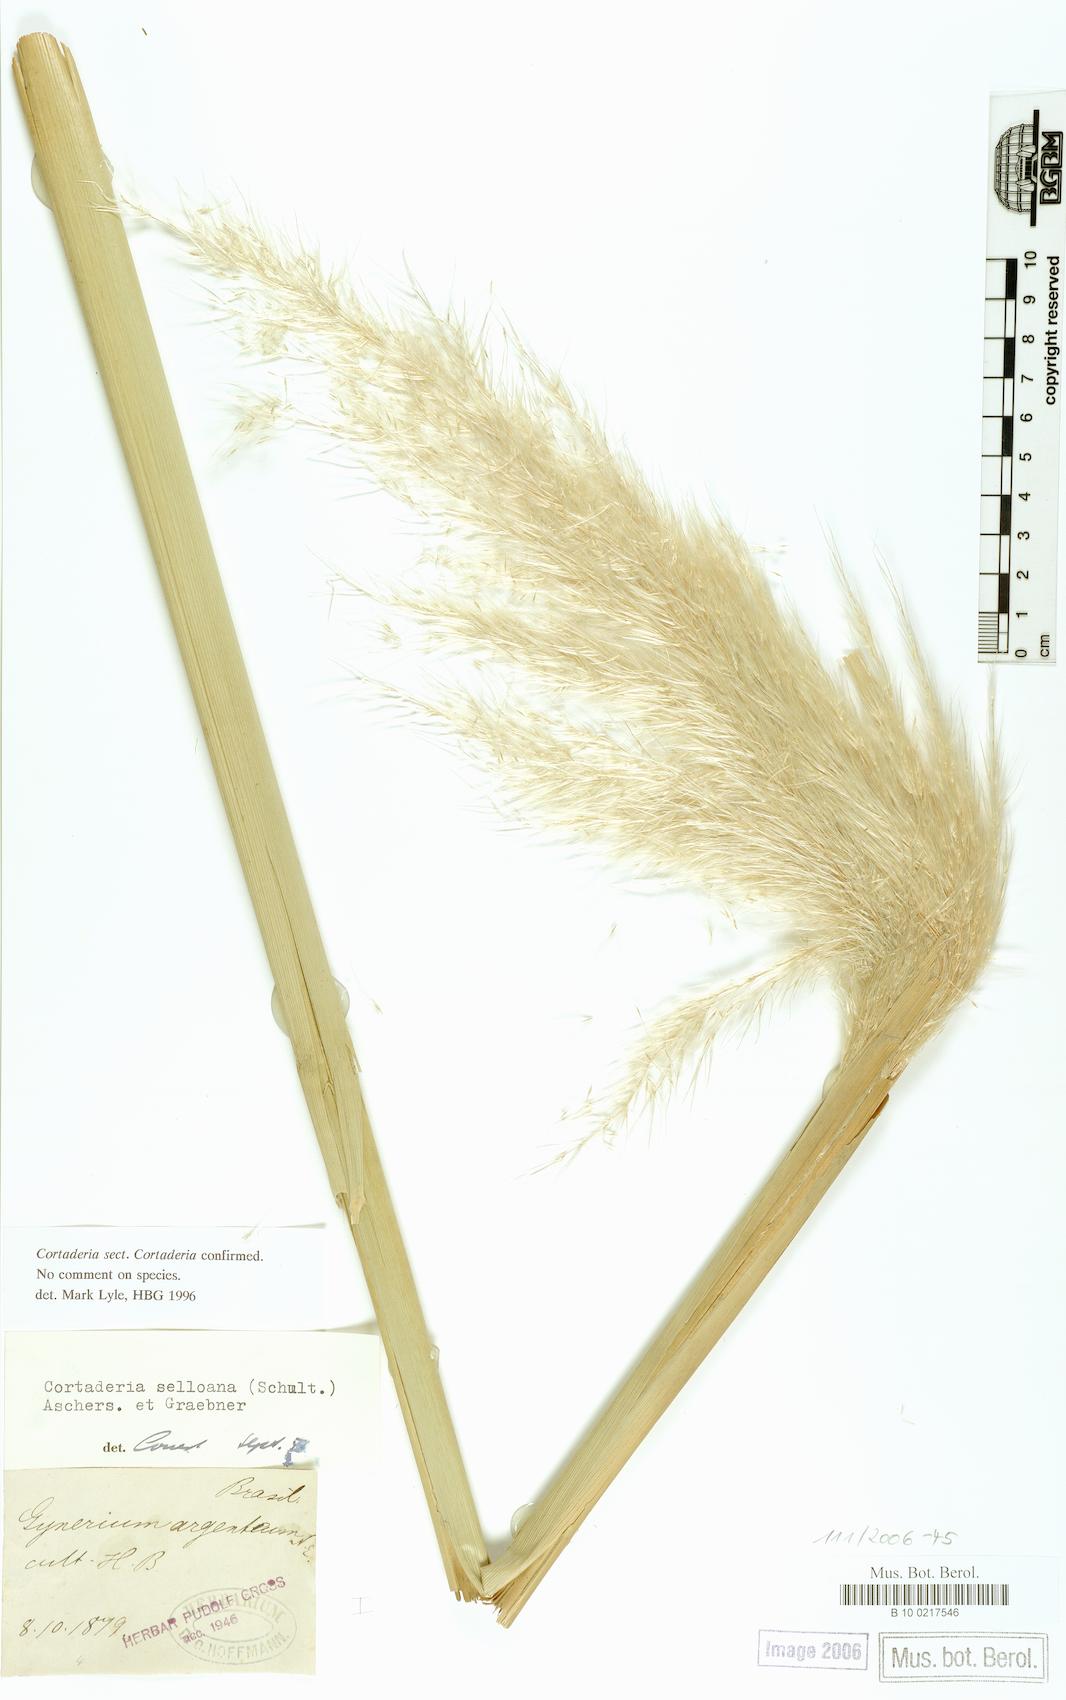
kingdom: Plantae
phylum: Tracheophyta
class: Liliopsida
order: Poales
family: Poaceae
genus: Cortaderia
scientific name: Cortaderia selloana
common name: Uruguayan pampas grass
